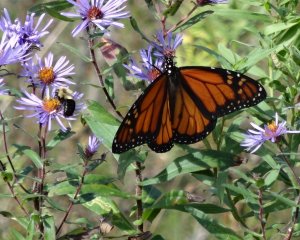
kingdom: Animalia
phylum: Arthropoda
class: Insecta
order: Lepidoptera
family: Nymphalidae
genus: Danaus
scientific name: Danaus plexippus
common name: Monarch
